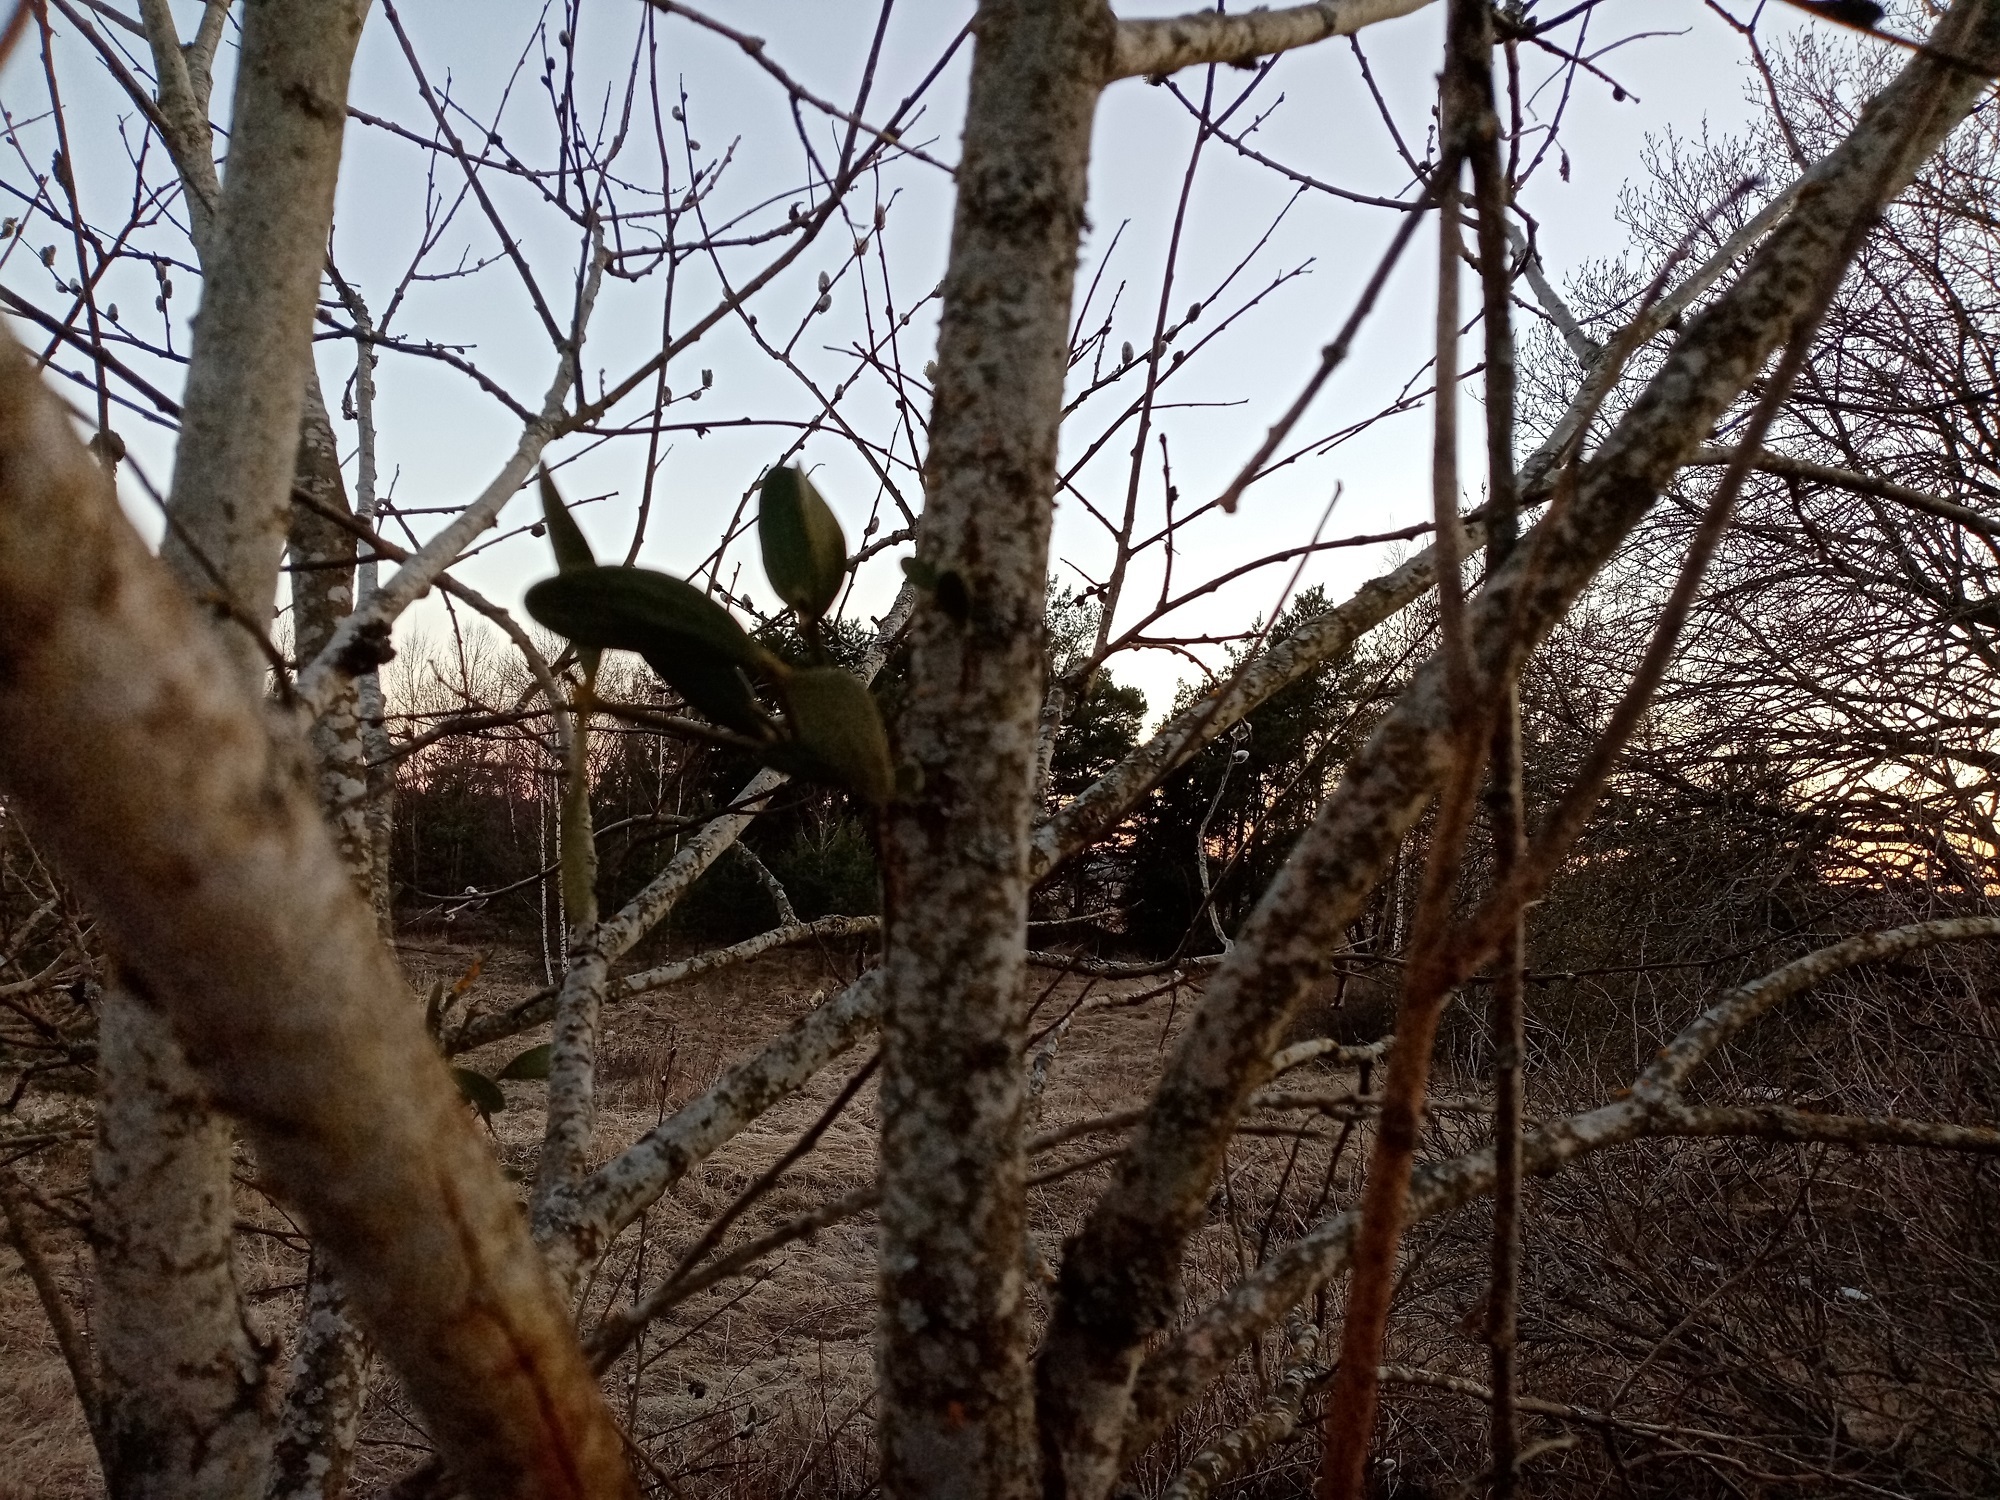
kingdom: Plantae
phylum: Tracheophyta
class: Magnoliopsida
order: Santalales
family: Viscaceae
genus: Viscum
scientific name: Viscum album
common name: Mistletoe
